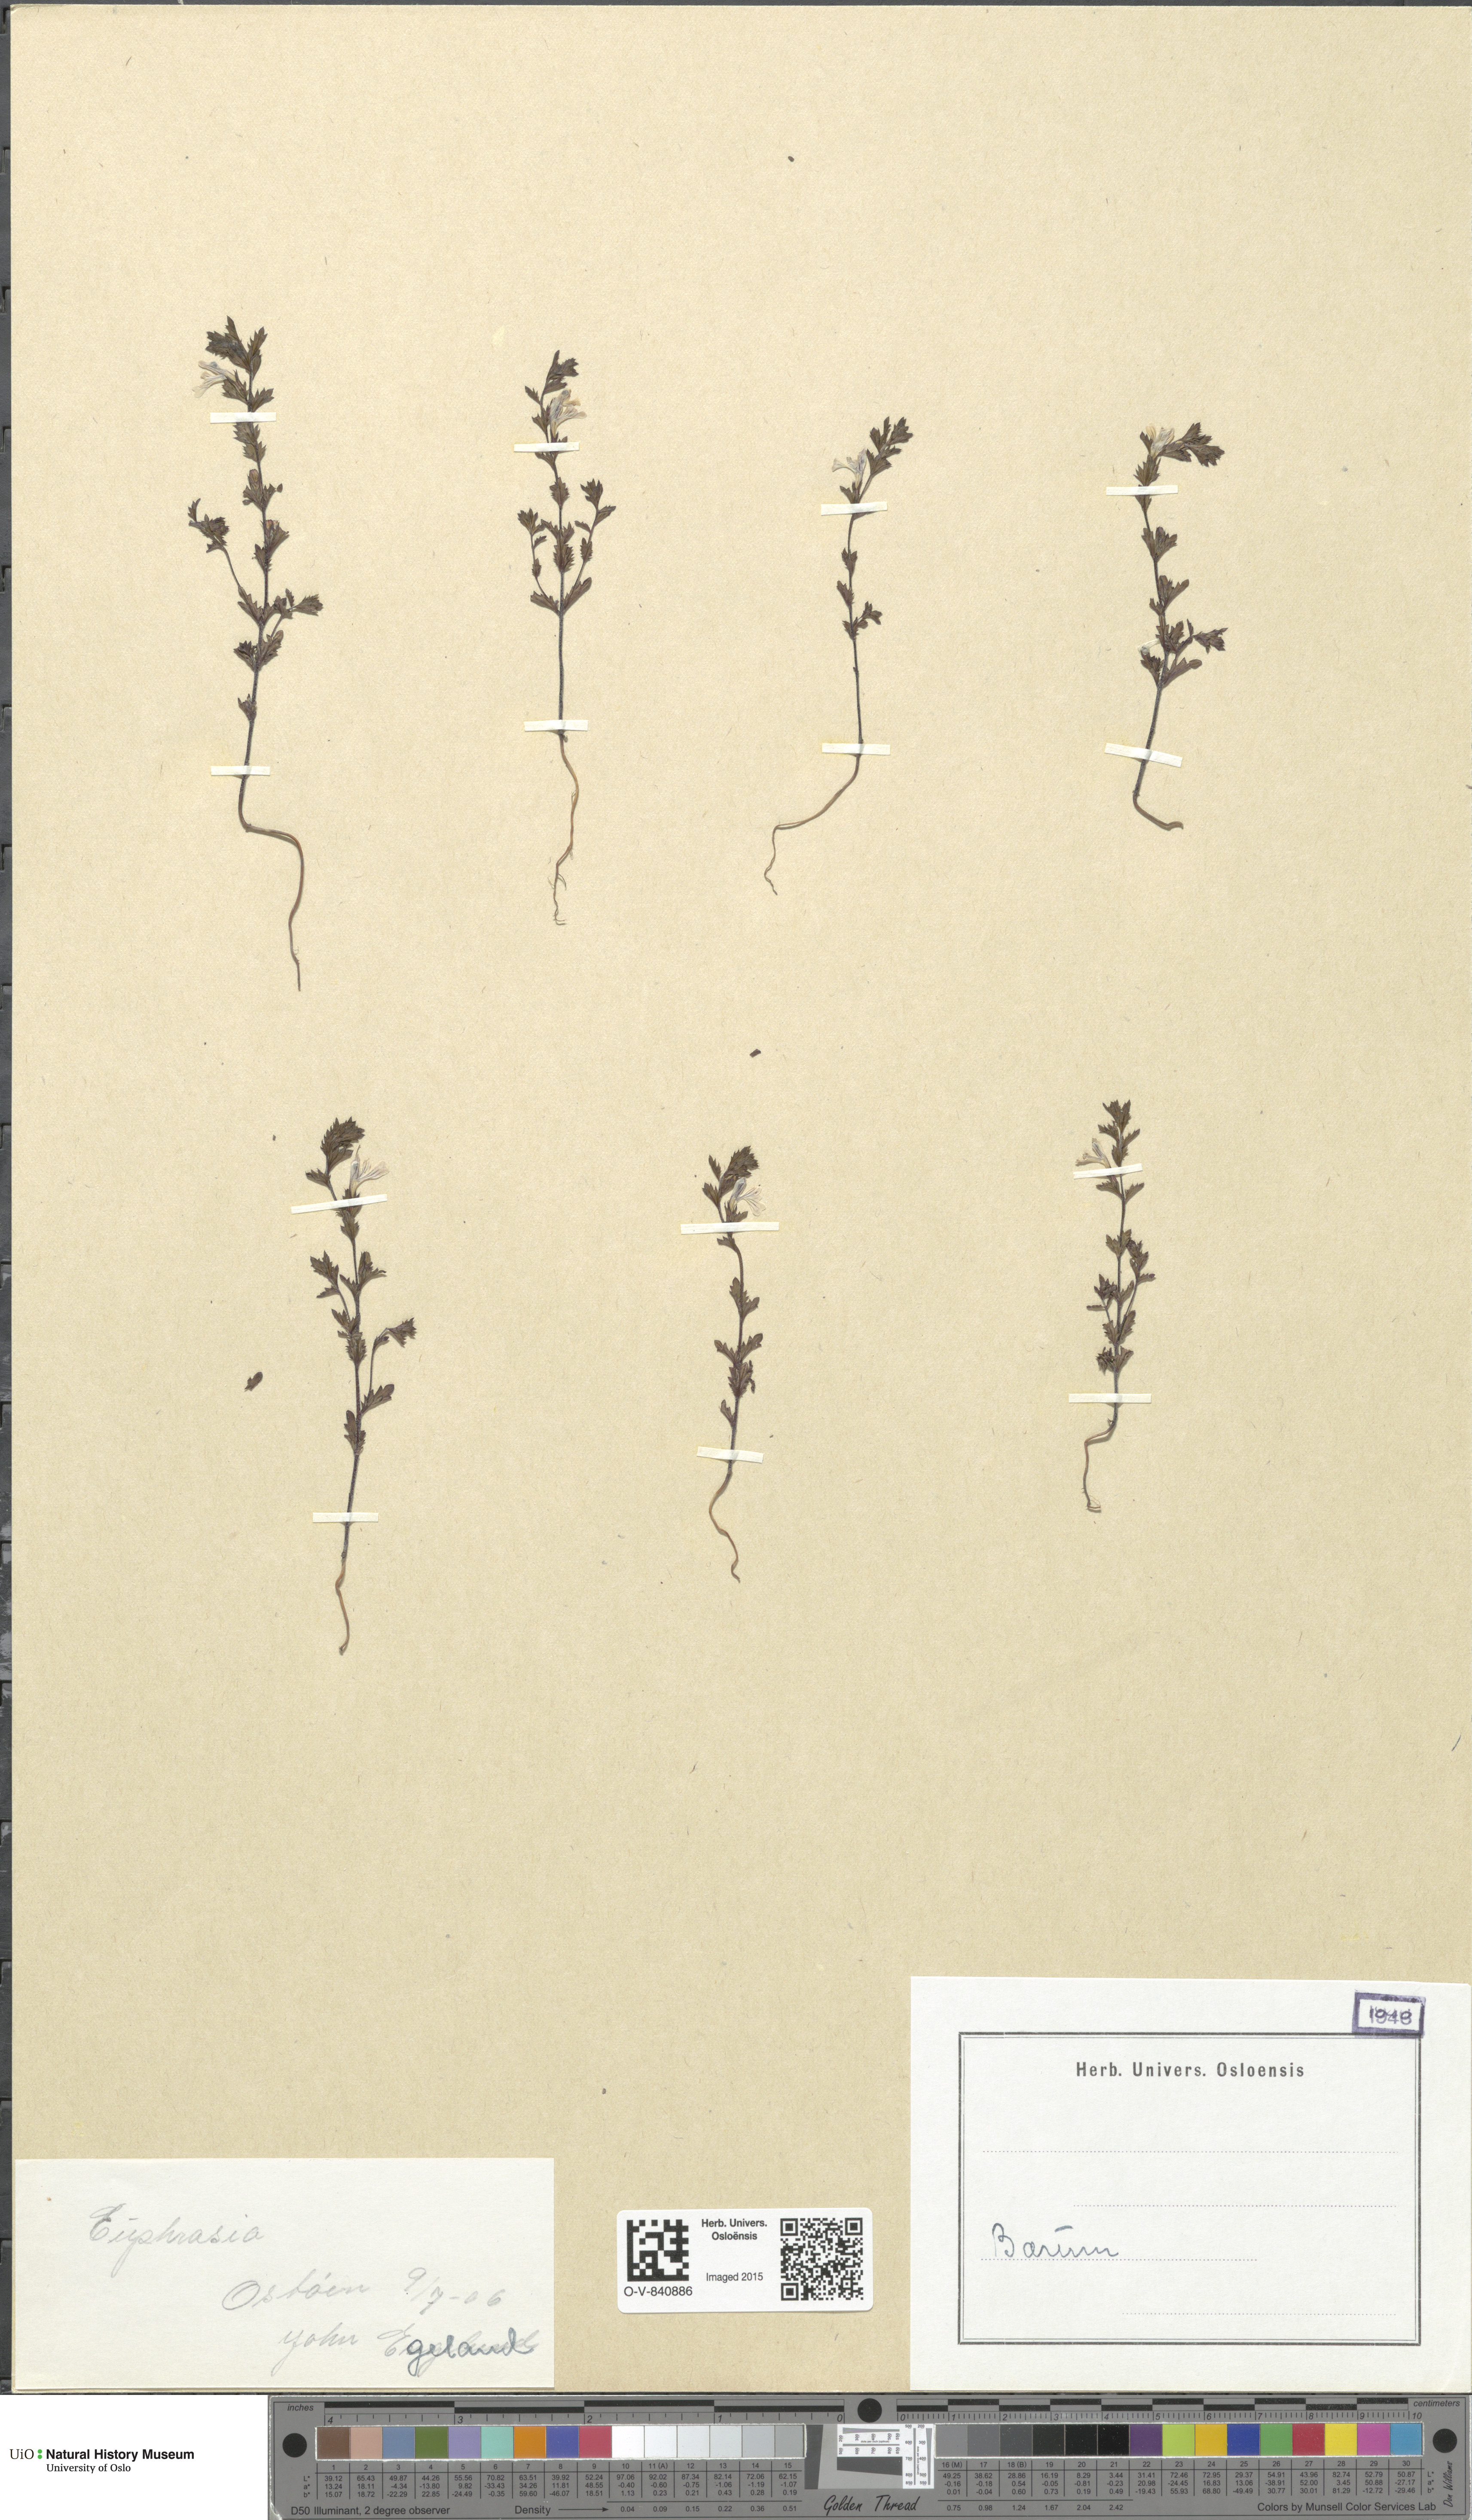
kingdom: Plantae
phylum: Tracheophyta
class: Magnoliopsida
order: Lamiales
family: Orobanchaceae
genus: Euphrasia
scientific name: Euphrasia
